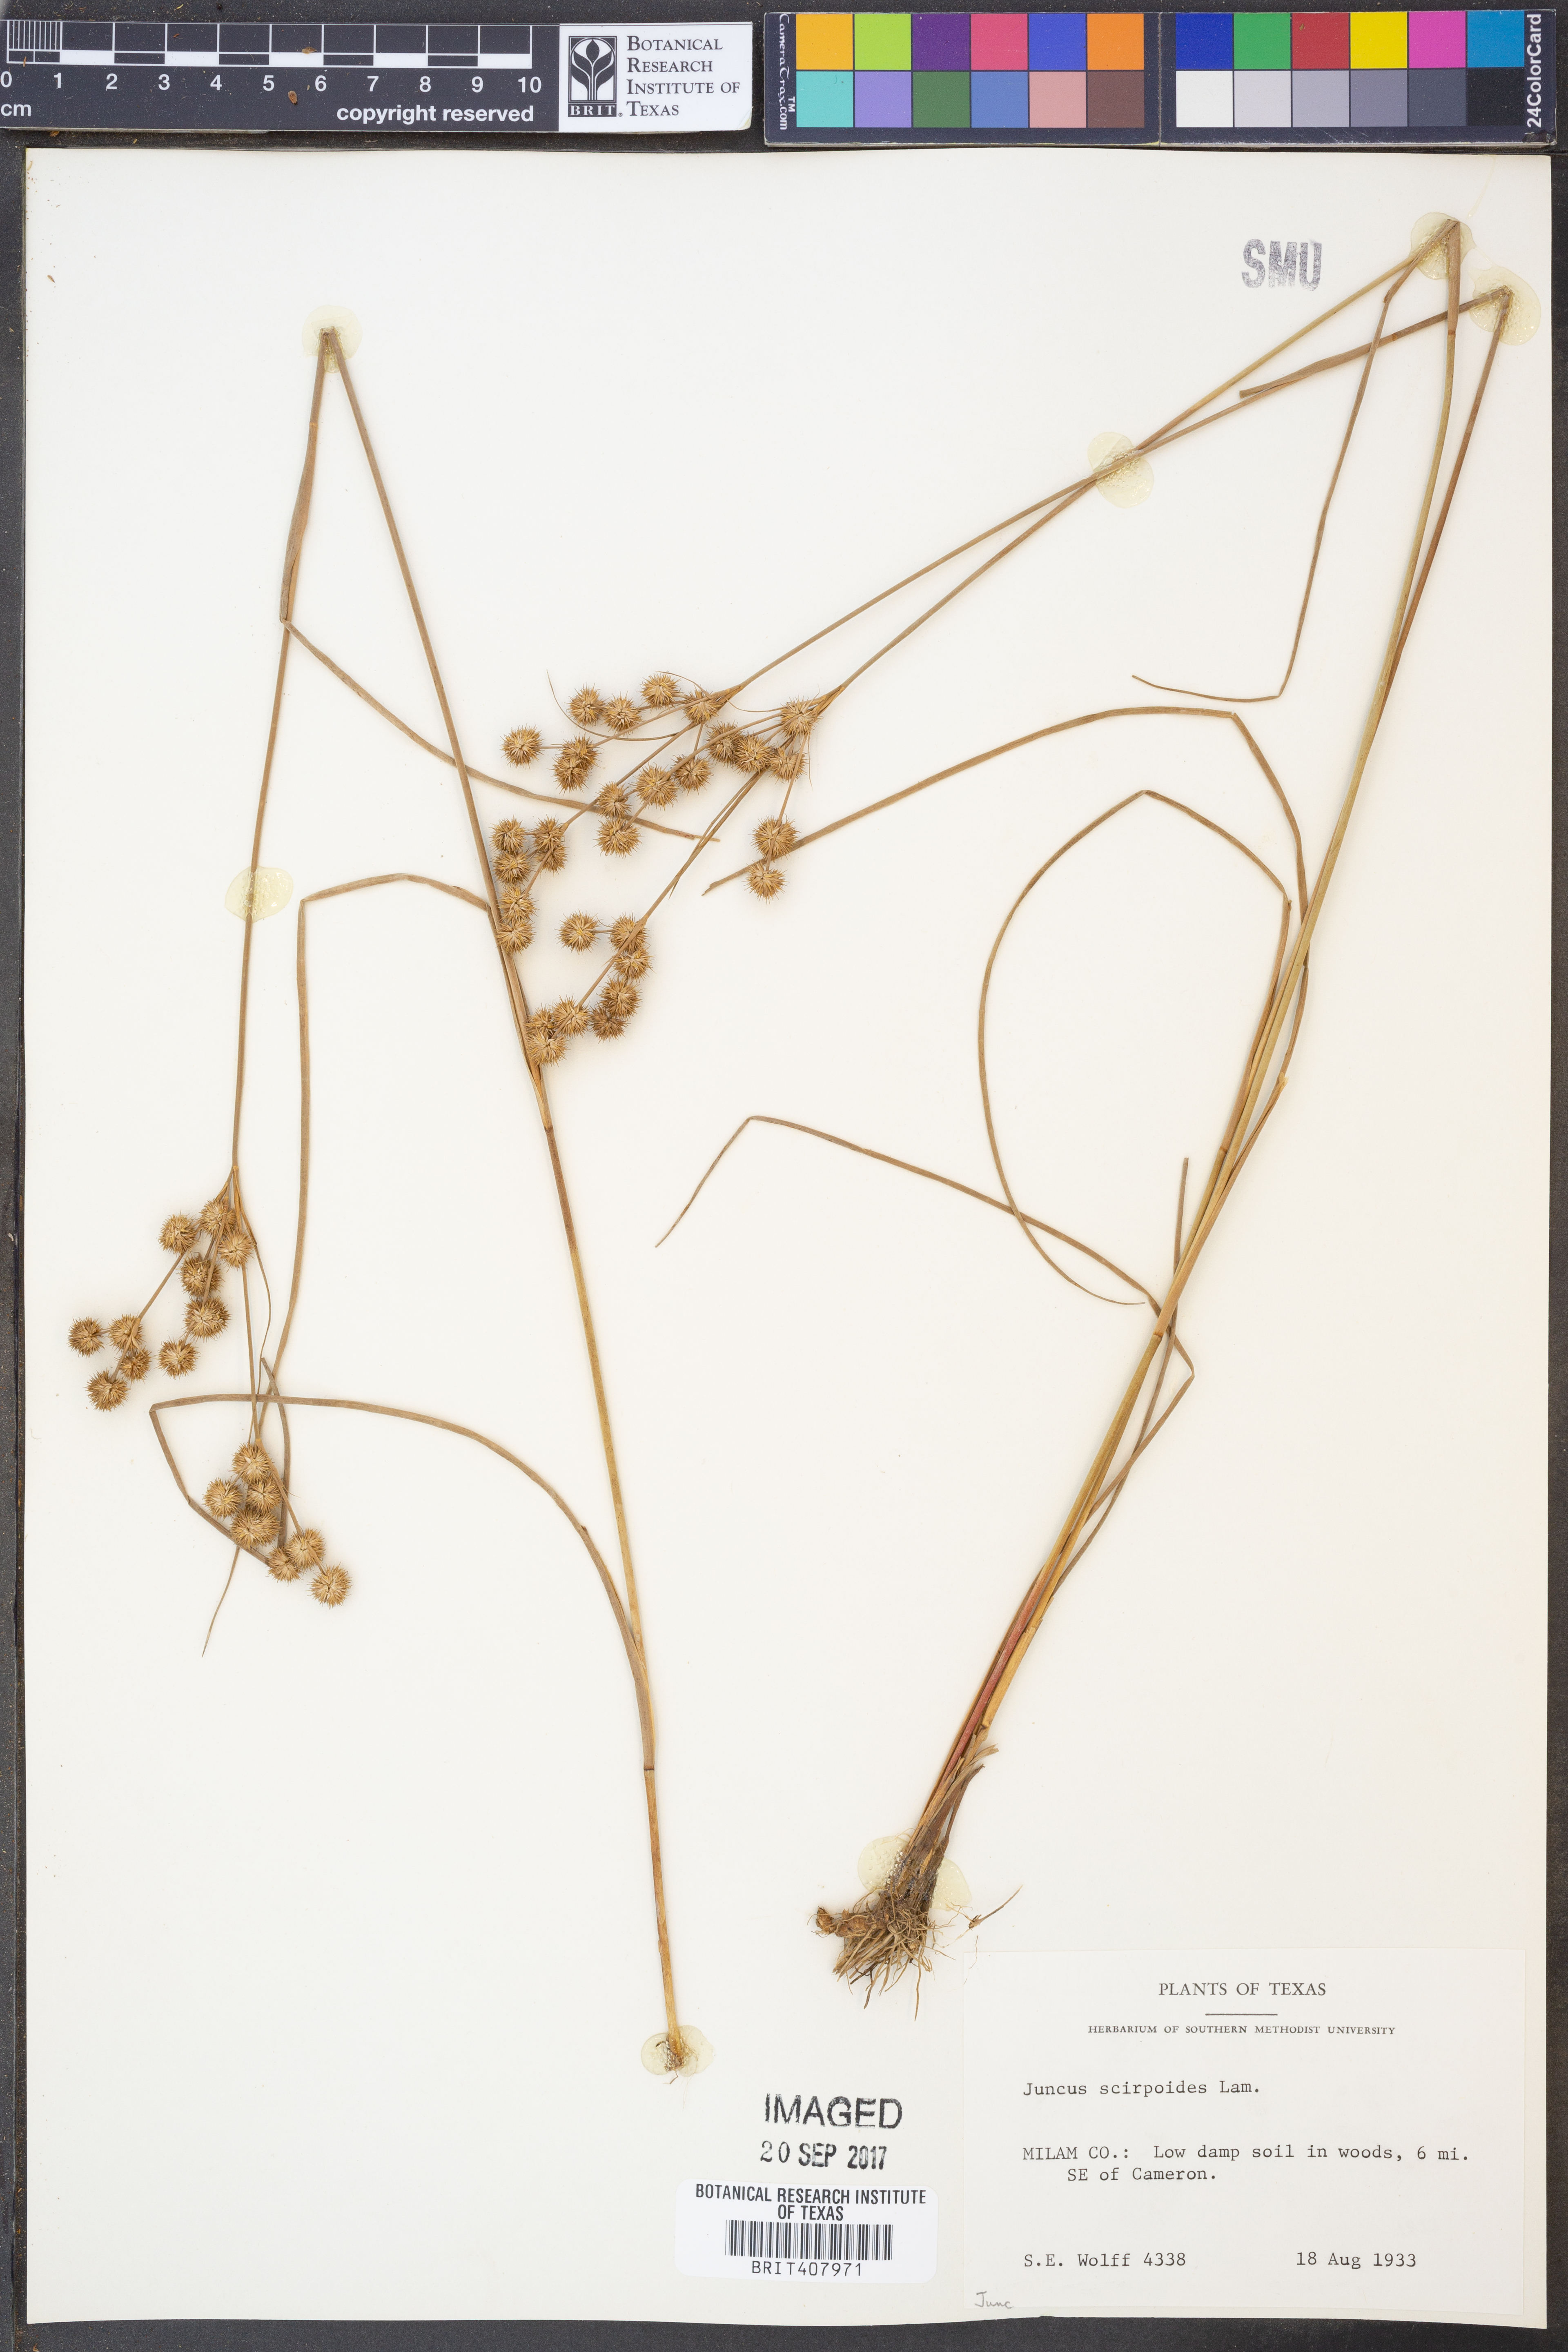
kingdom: Plantae
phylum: Tracheophyta
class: Liliopsida
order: Poales
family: Juncaceae
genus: Juncus
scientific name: Juncus scirpoides
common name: Needlepod rush
